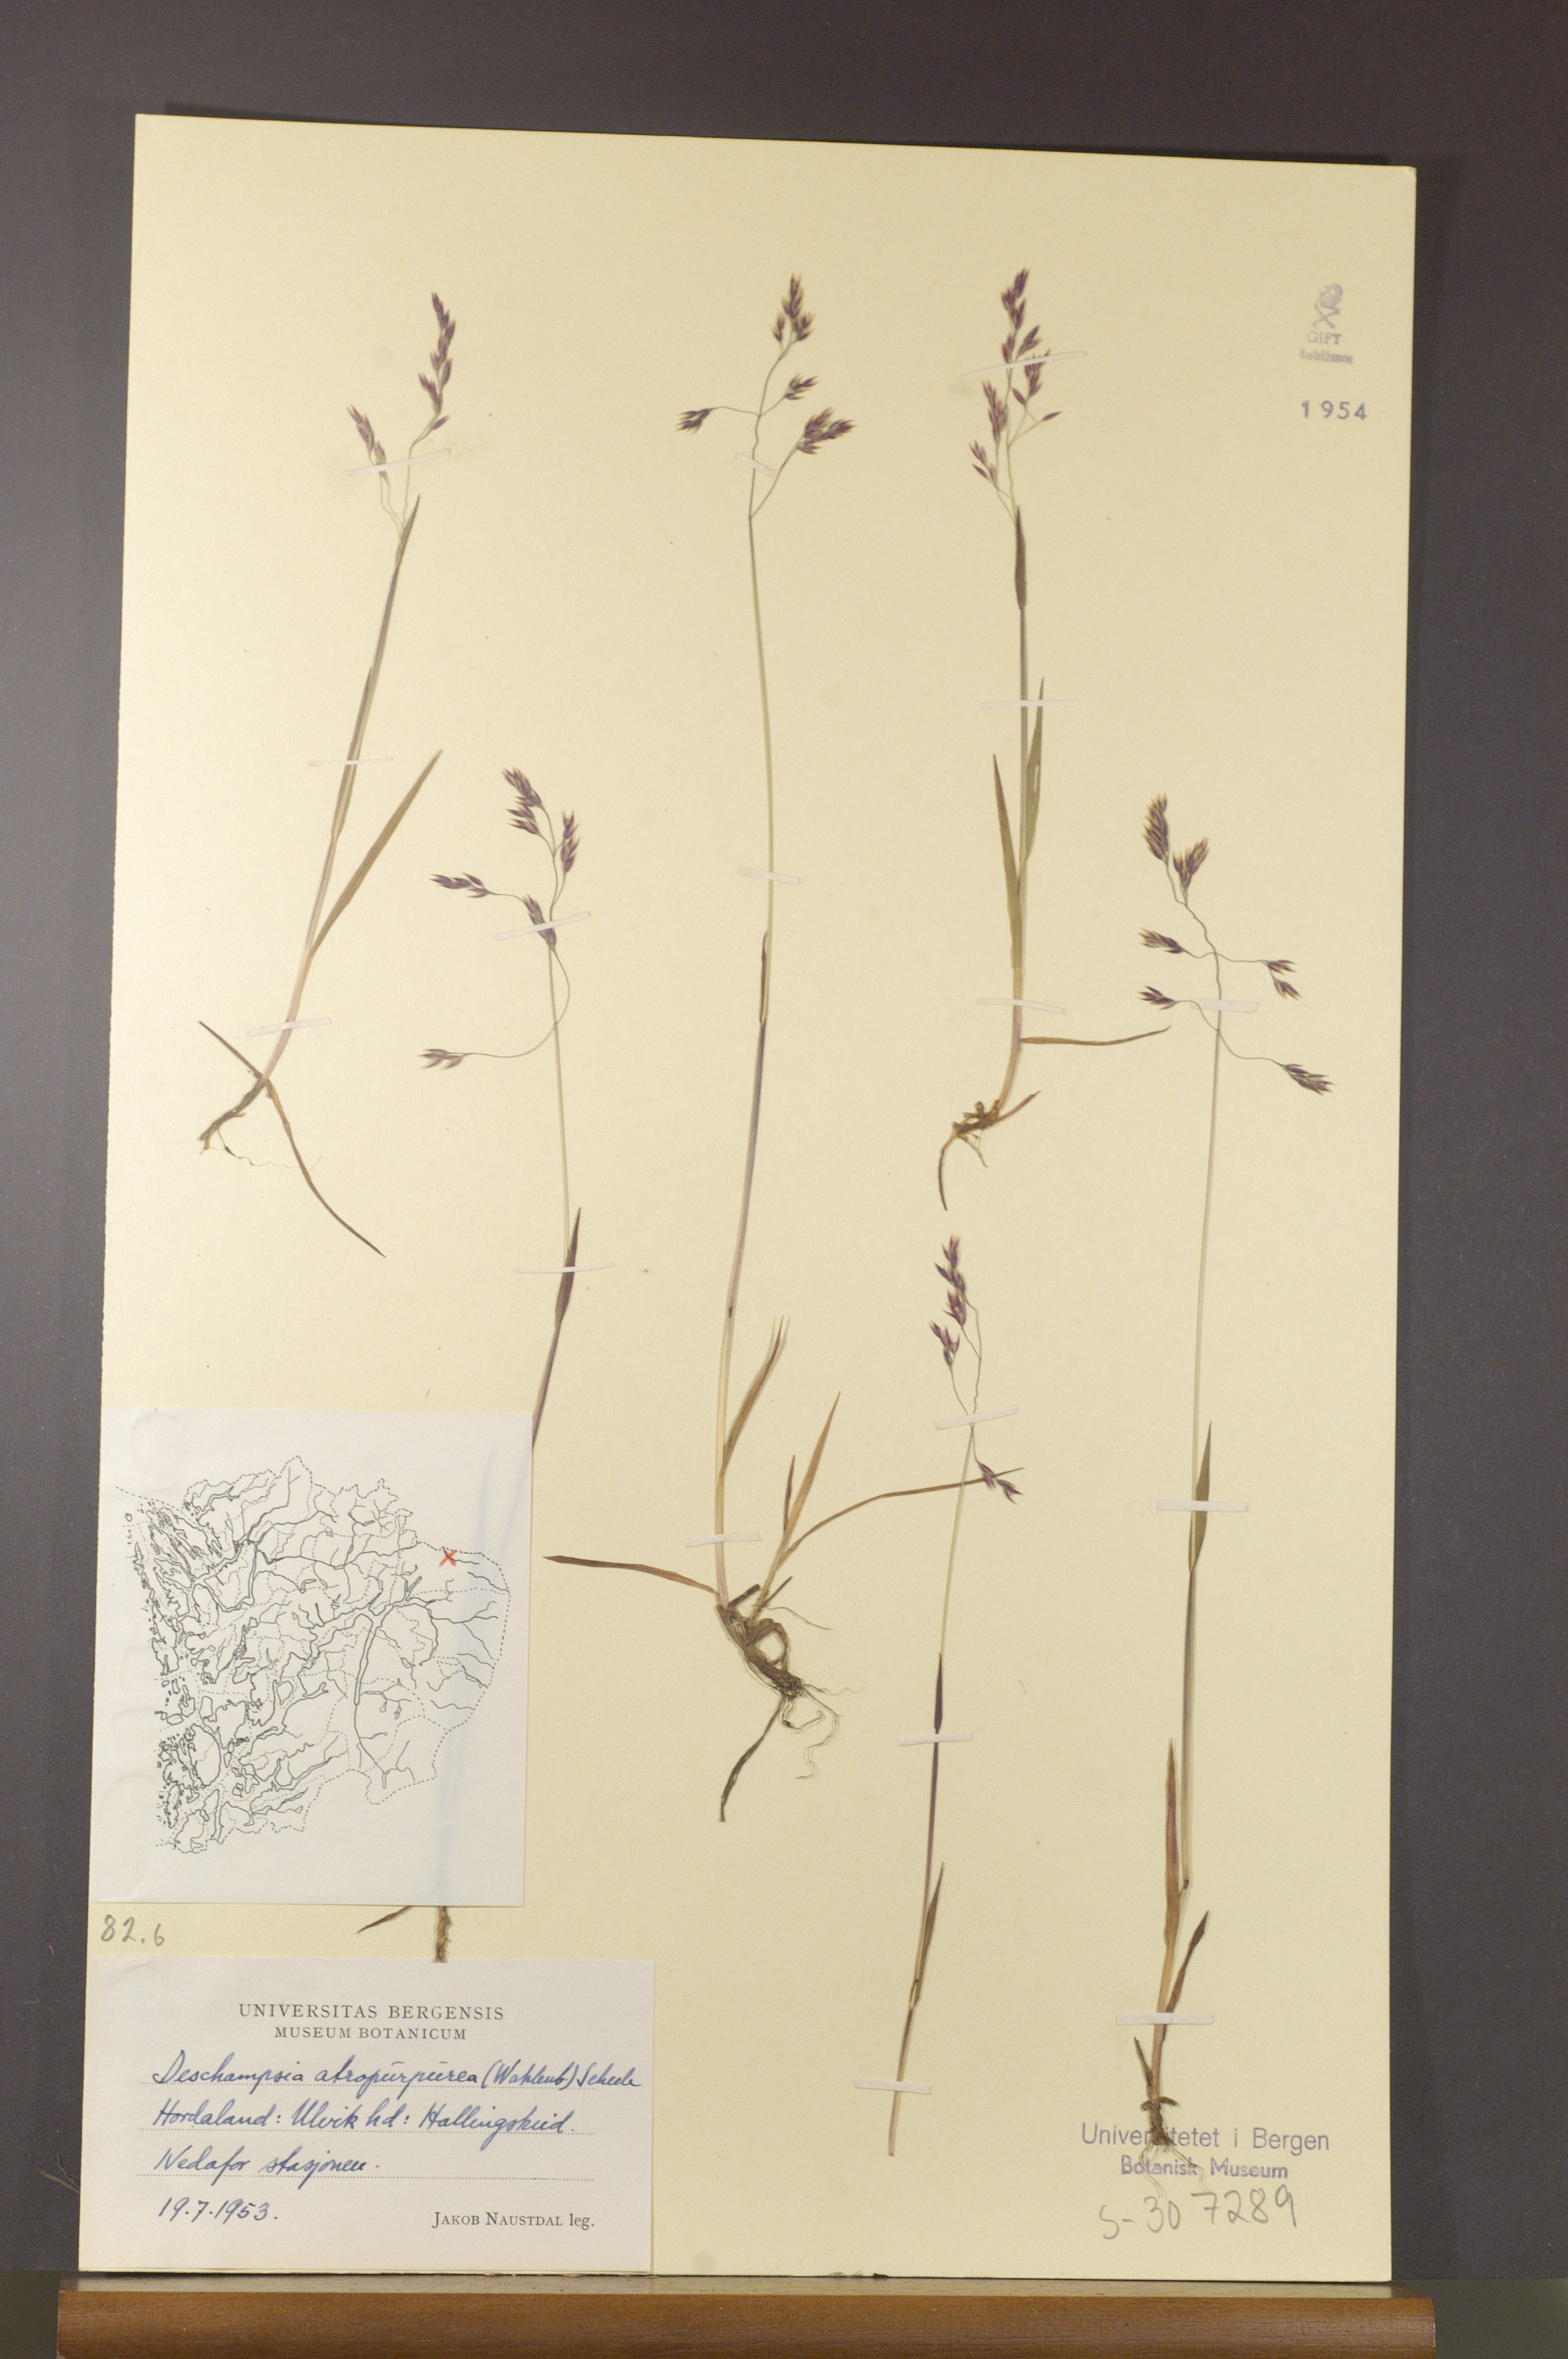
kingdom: Plantae
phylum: Tracheophyta
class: Liliopsida
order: Poales
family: Poaceae
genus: Vahlodea
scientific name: Vahlodea atropurpurea
